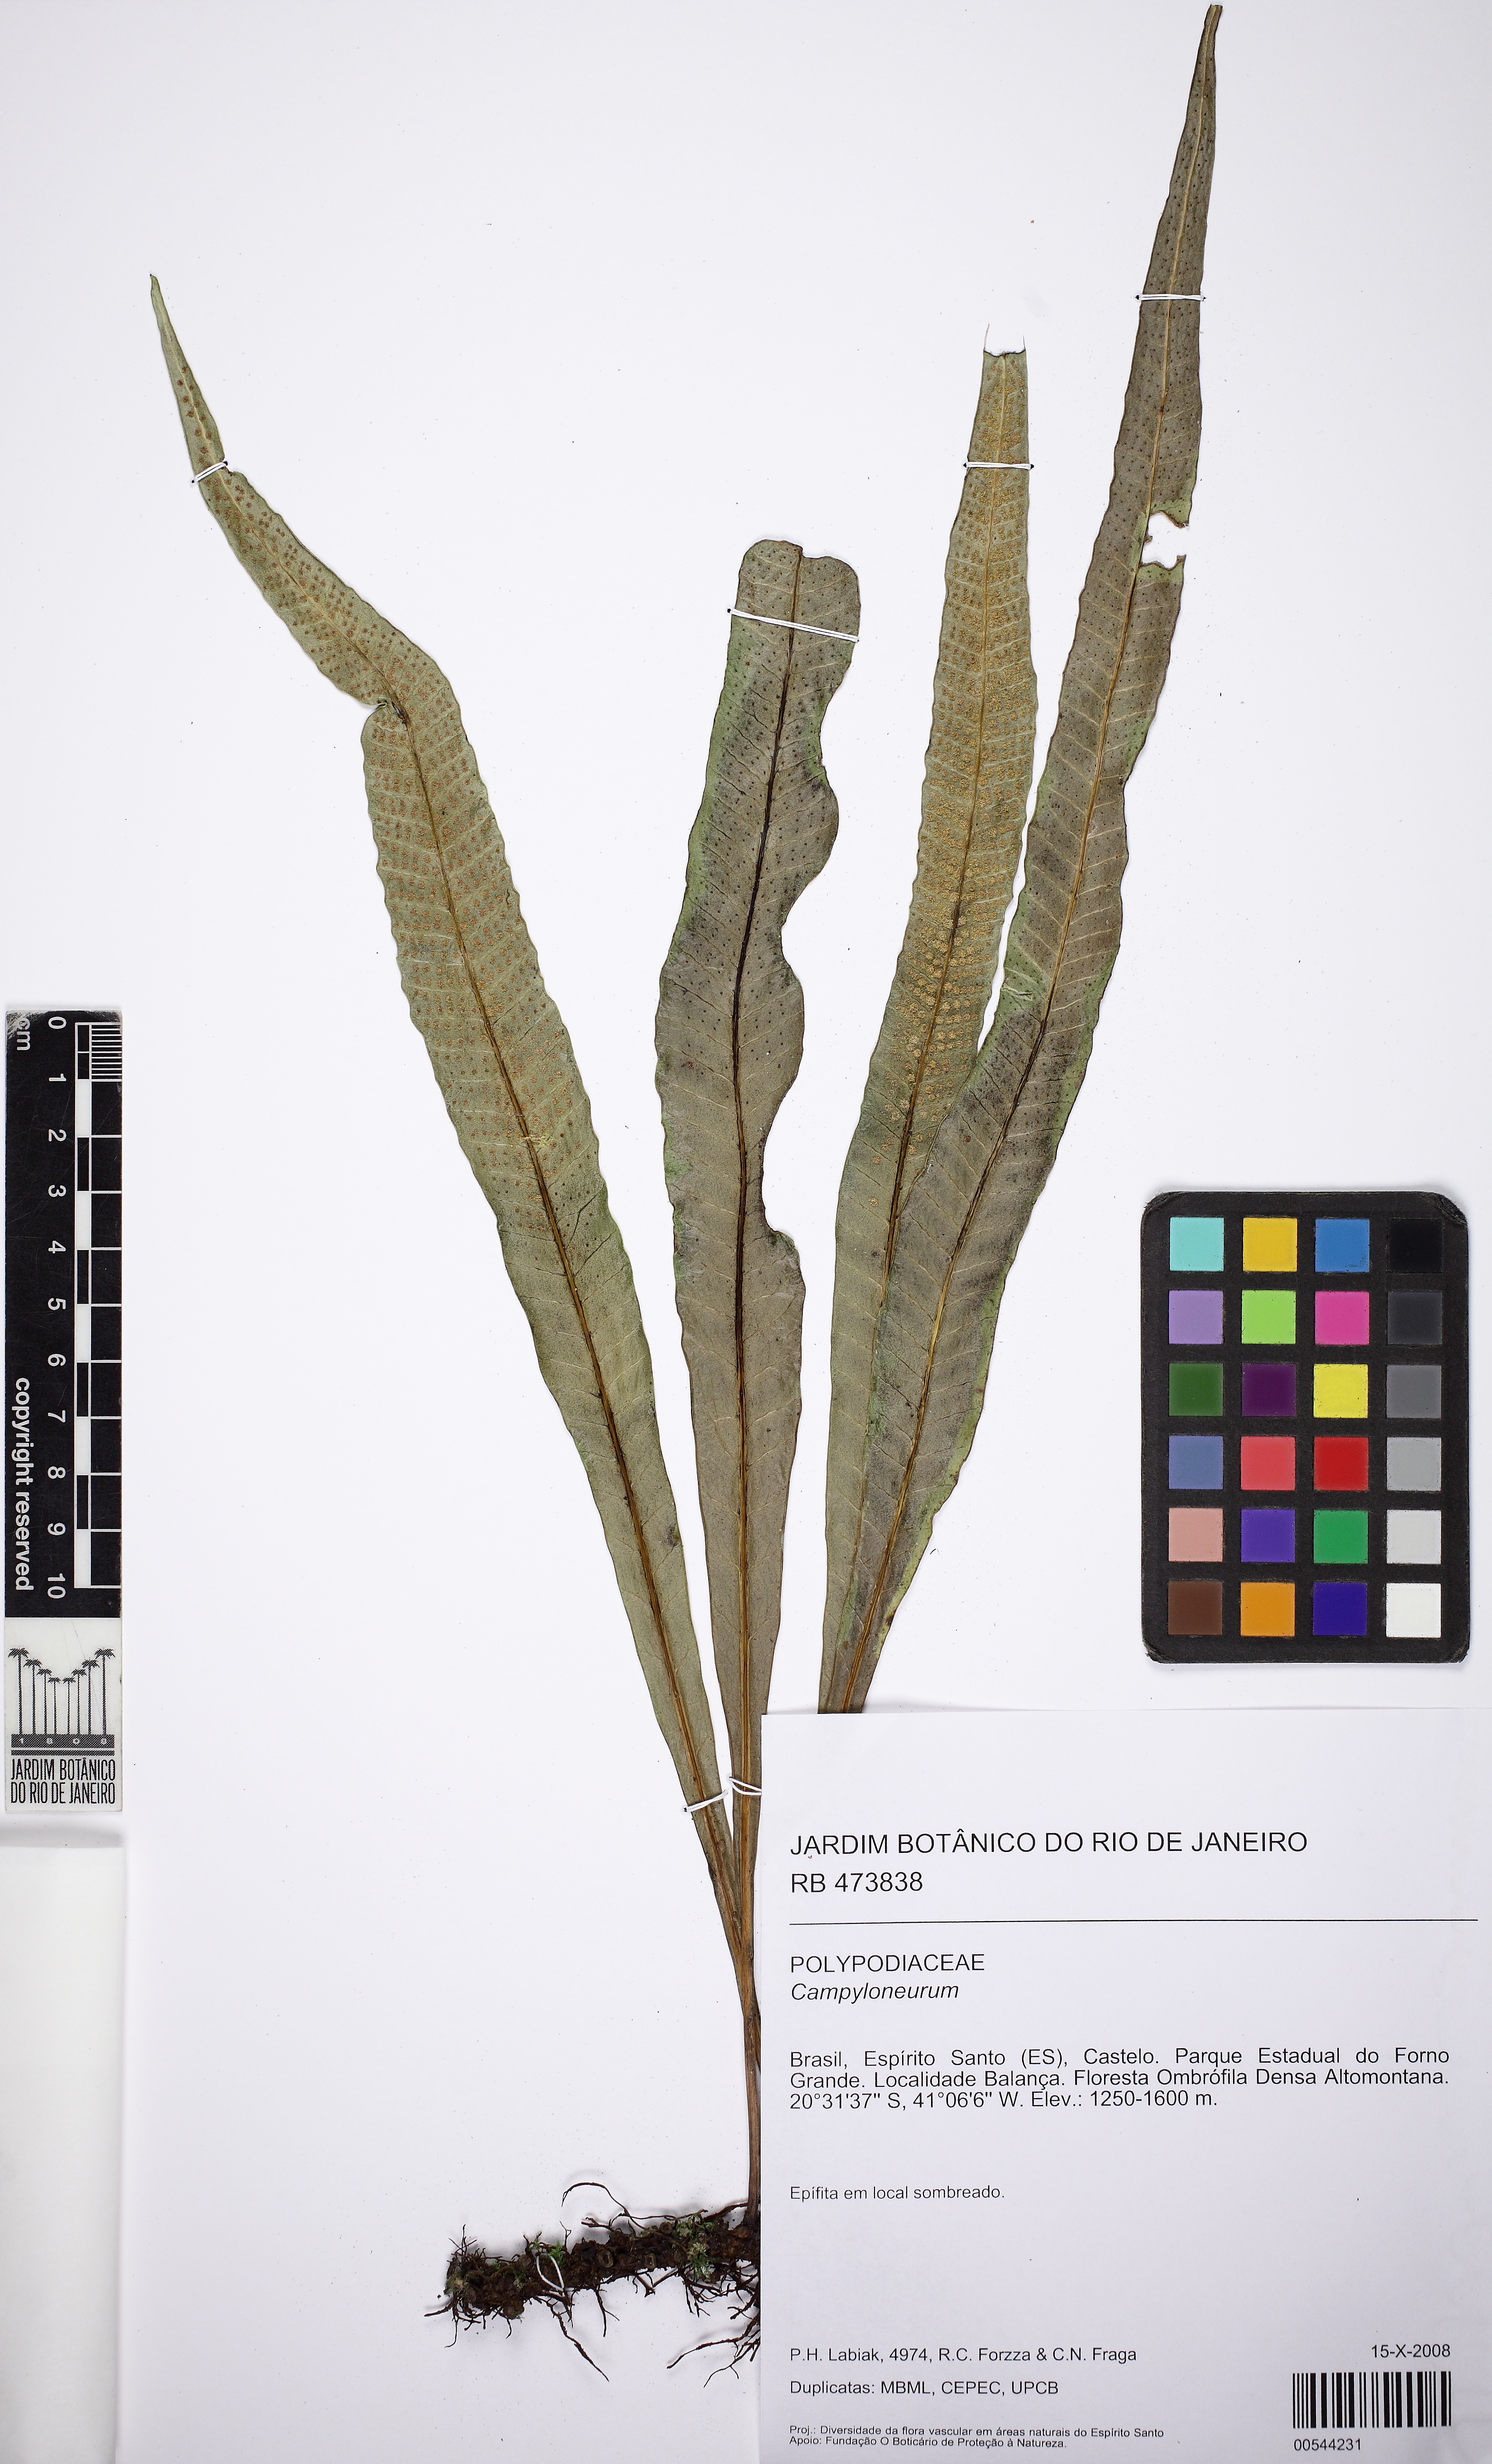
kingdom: Plantae
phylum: Tracheophyta
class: Polypodiopsida
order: Polypodiales
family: Polypodiaceae
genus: Campyloneurum
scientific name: Campyloneurum nitidum
